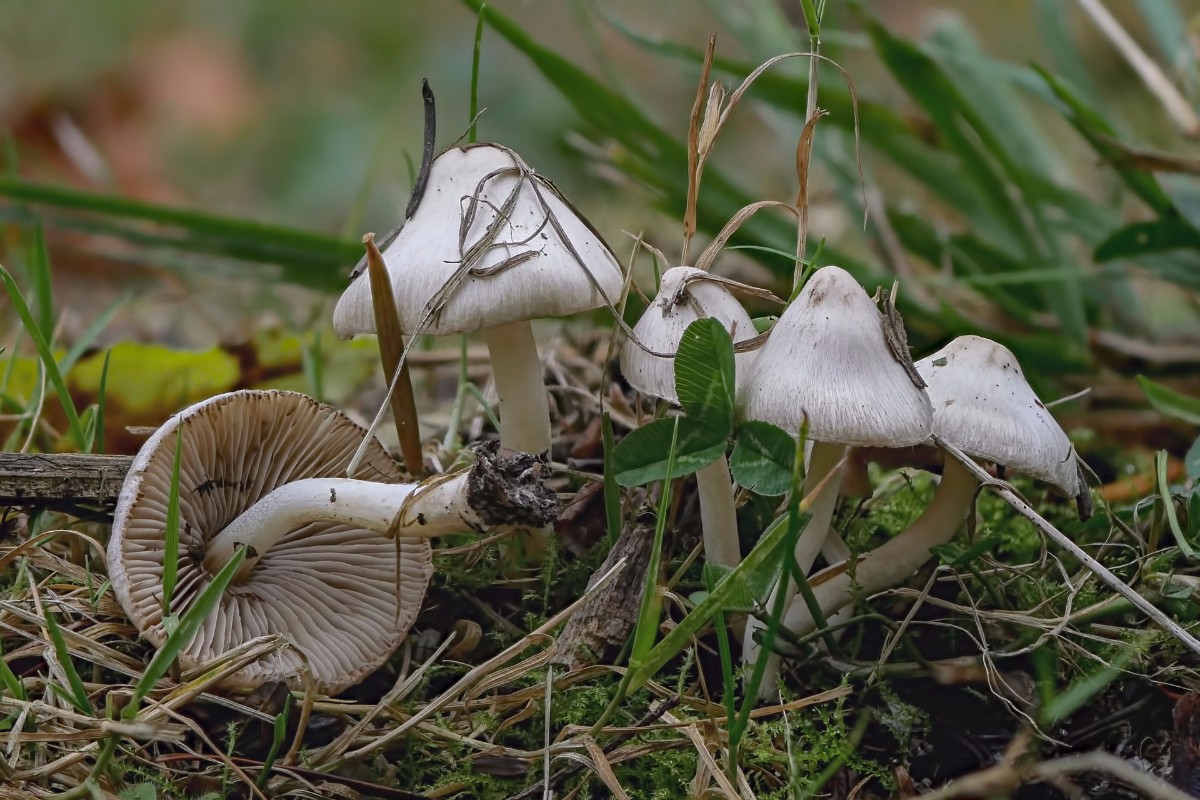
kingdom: Fungi
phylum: Basidiomycota
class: Agaricomycetes
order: Agaricales
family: Inocybaceae
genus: Inocybe
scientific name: Inocybe
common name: almindelig trævlhat
